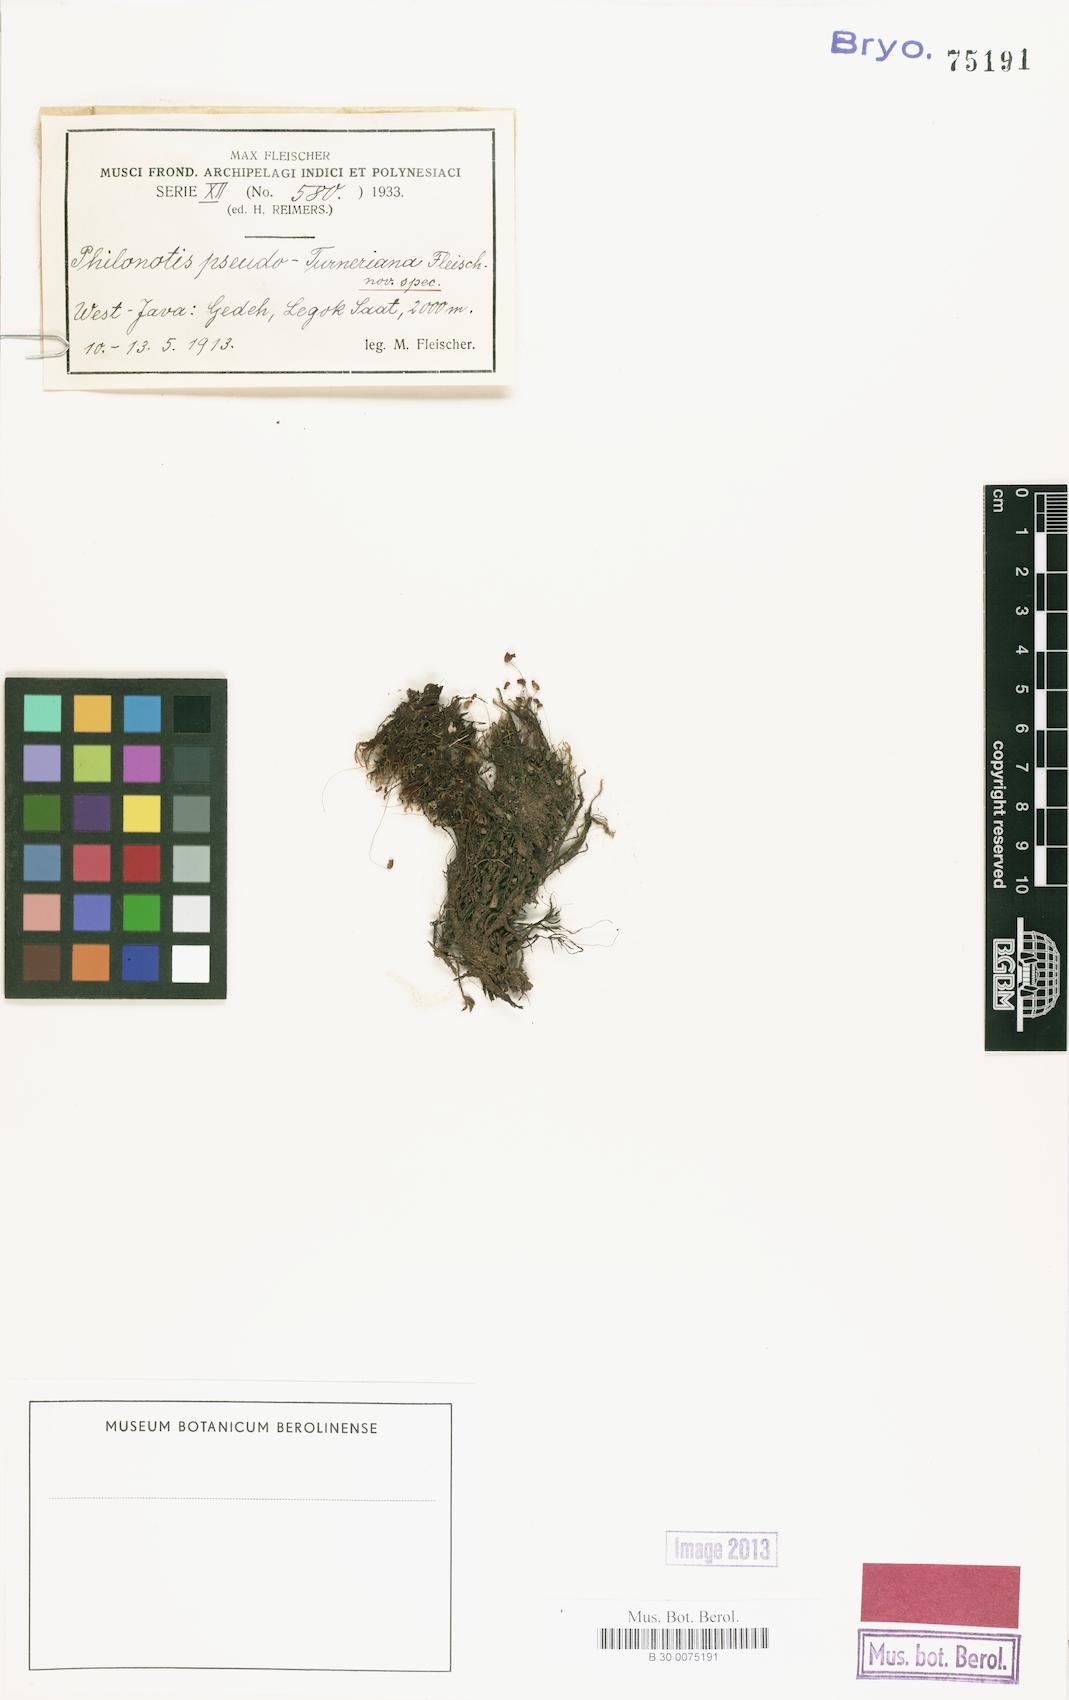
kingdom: Plantae
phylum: Bryophyta
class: Bryopsida
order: Bartramiales
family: Bartramiaceae
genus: Philonotis
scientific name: Philonotis
